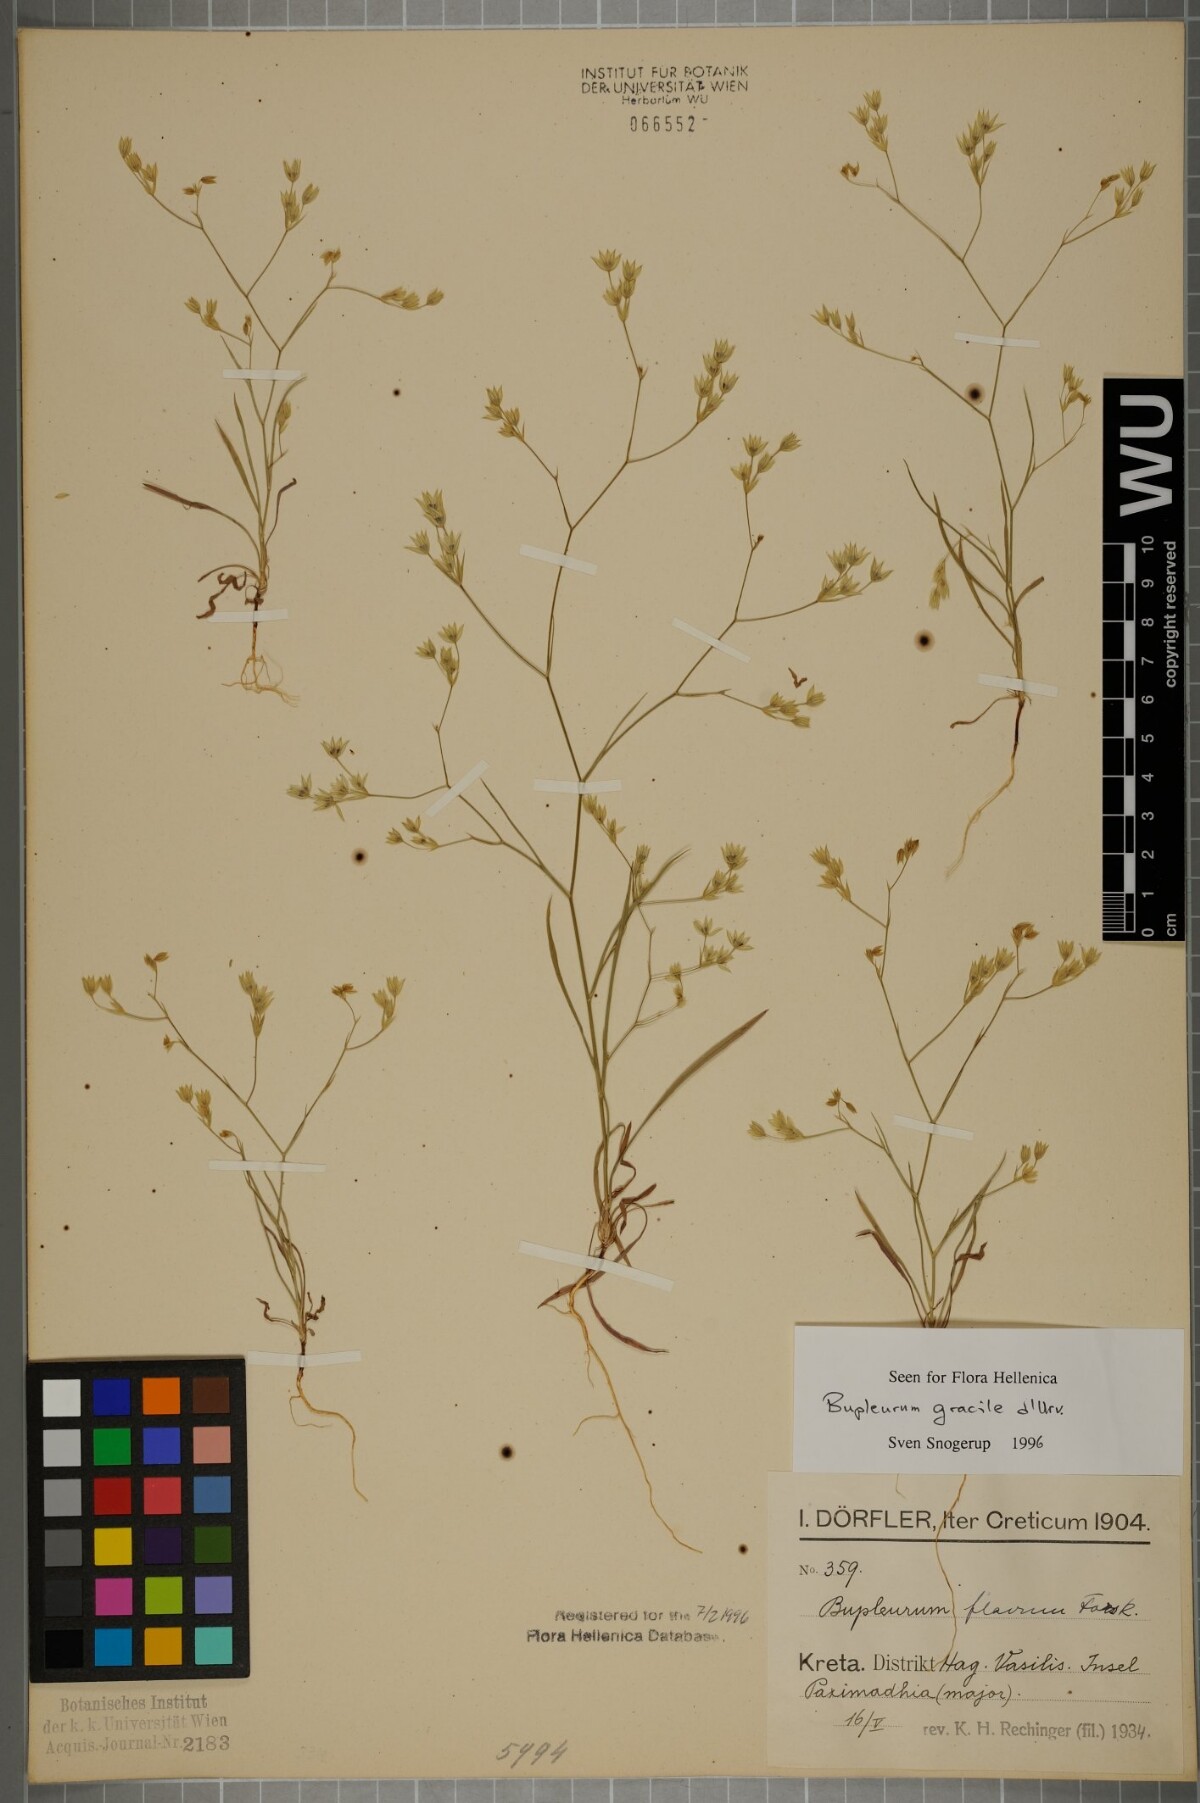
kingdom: Plantae
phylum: Tracheophyta
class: Magnoliopsida
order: Apiales
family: Apiaceae
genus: Bupleurum
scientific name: Bupleurum gracile
